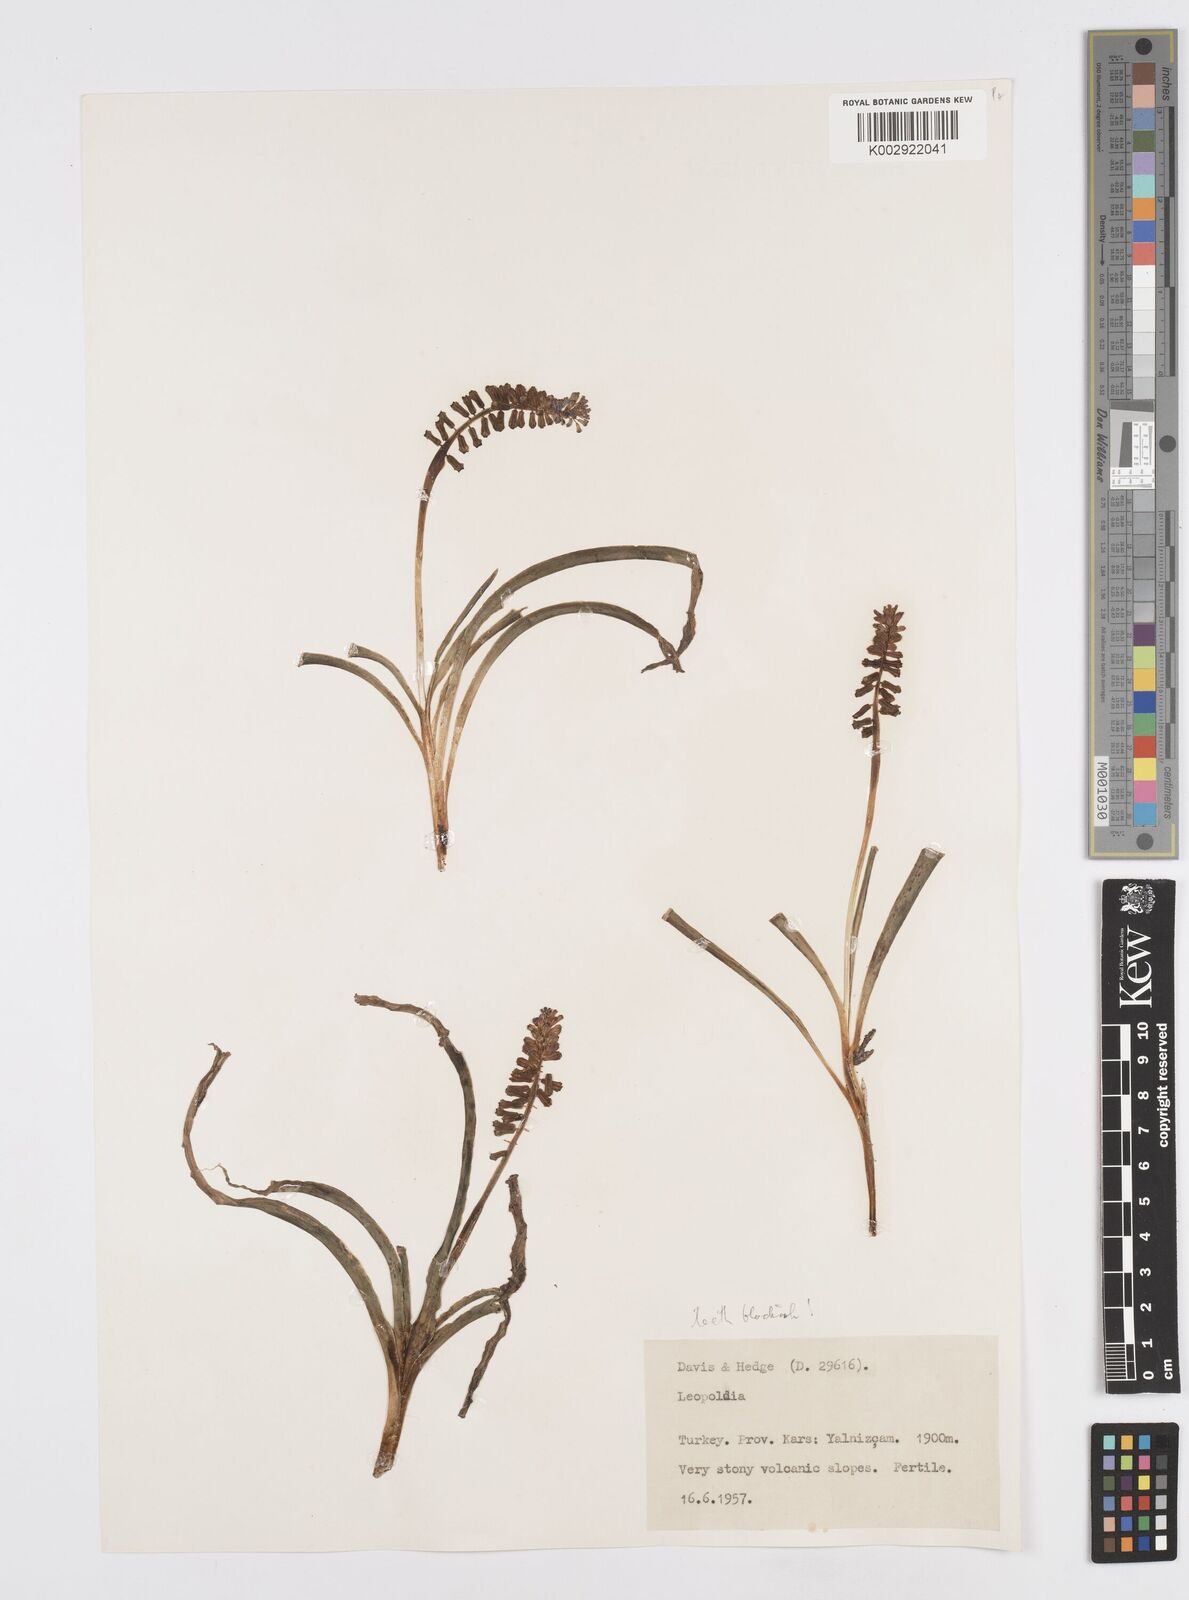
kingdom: Animalia
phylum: Mollusca
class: Cephalopoda
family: Neocomitidae
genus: Leopoldia
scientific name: Leopoldia
